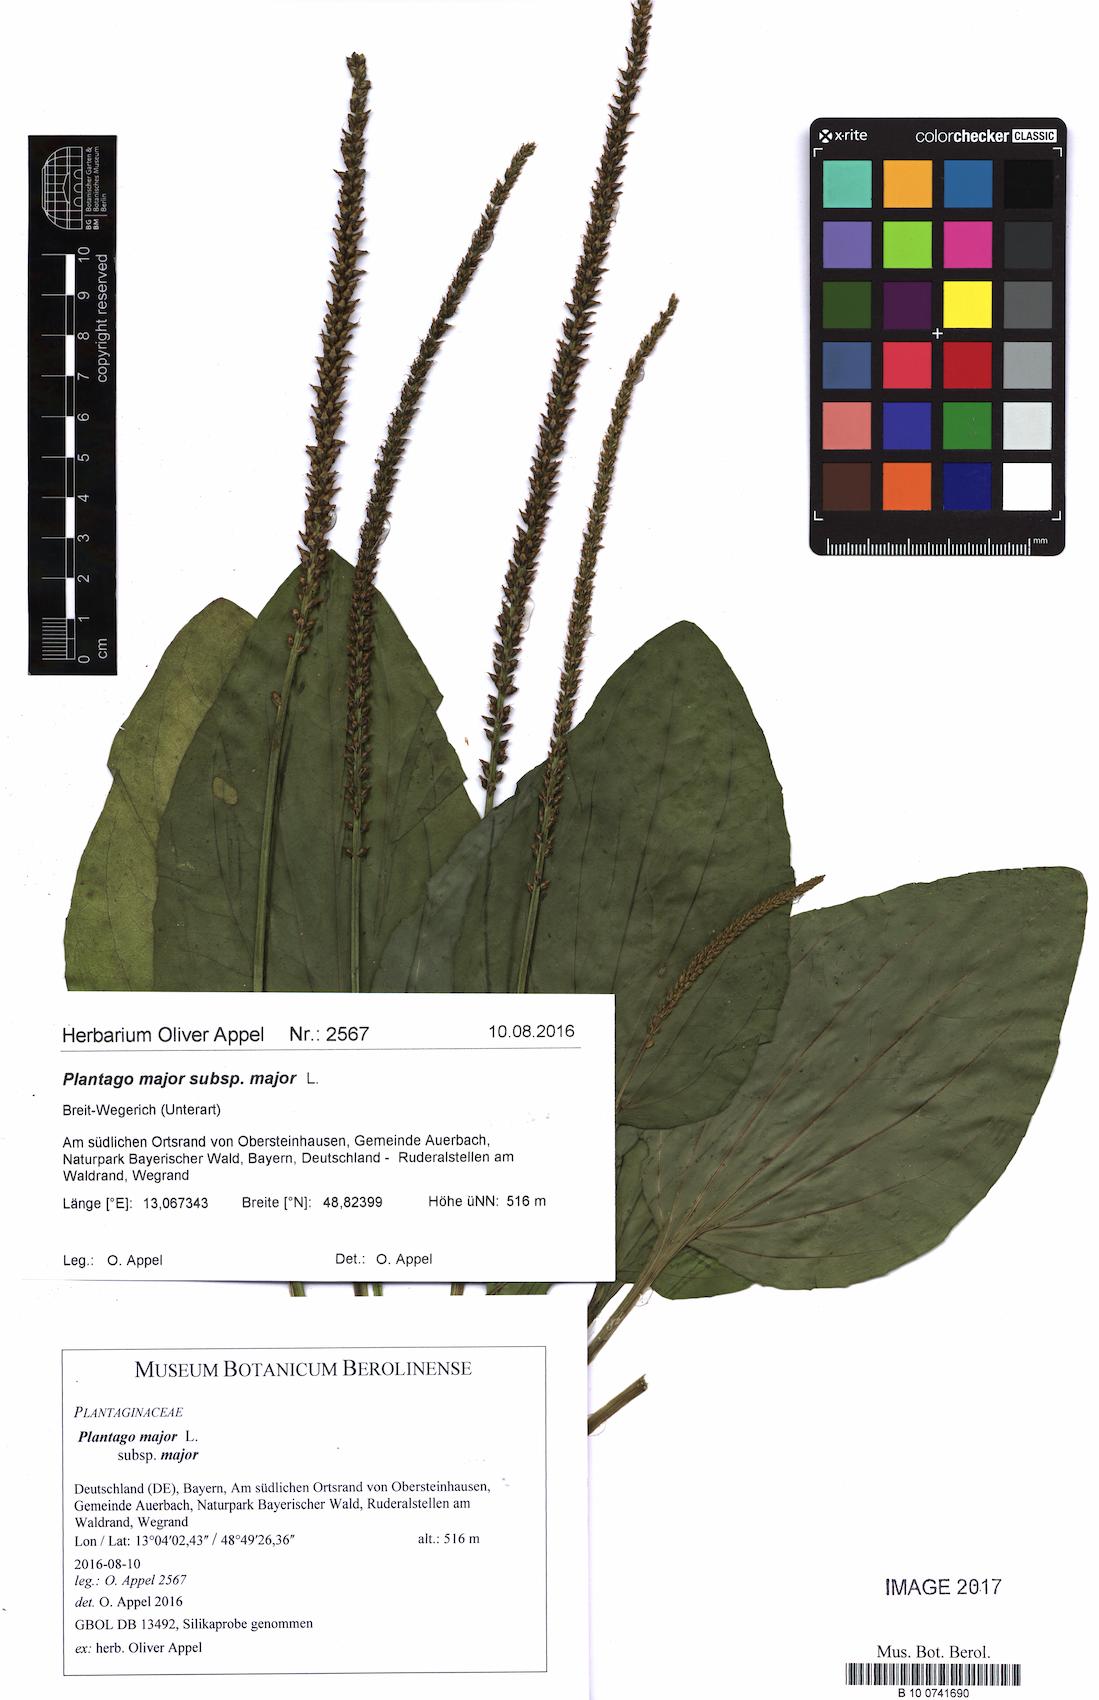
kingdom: Plantae
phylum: Tracheophyta
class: Magnoliopsida
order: Lamiales
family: Plantaginaceae
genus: Plantago
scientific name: Plantago major
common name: Common plantain
